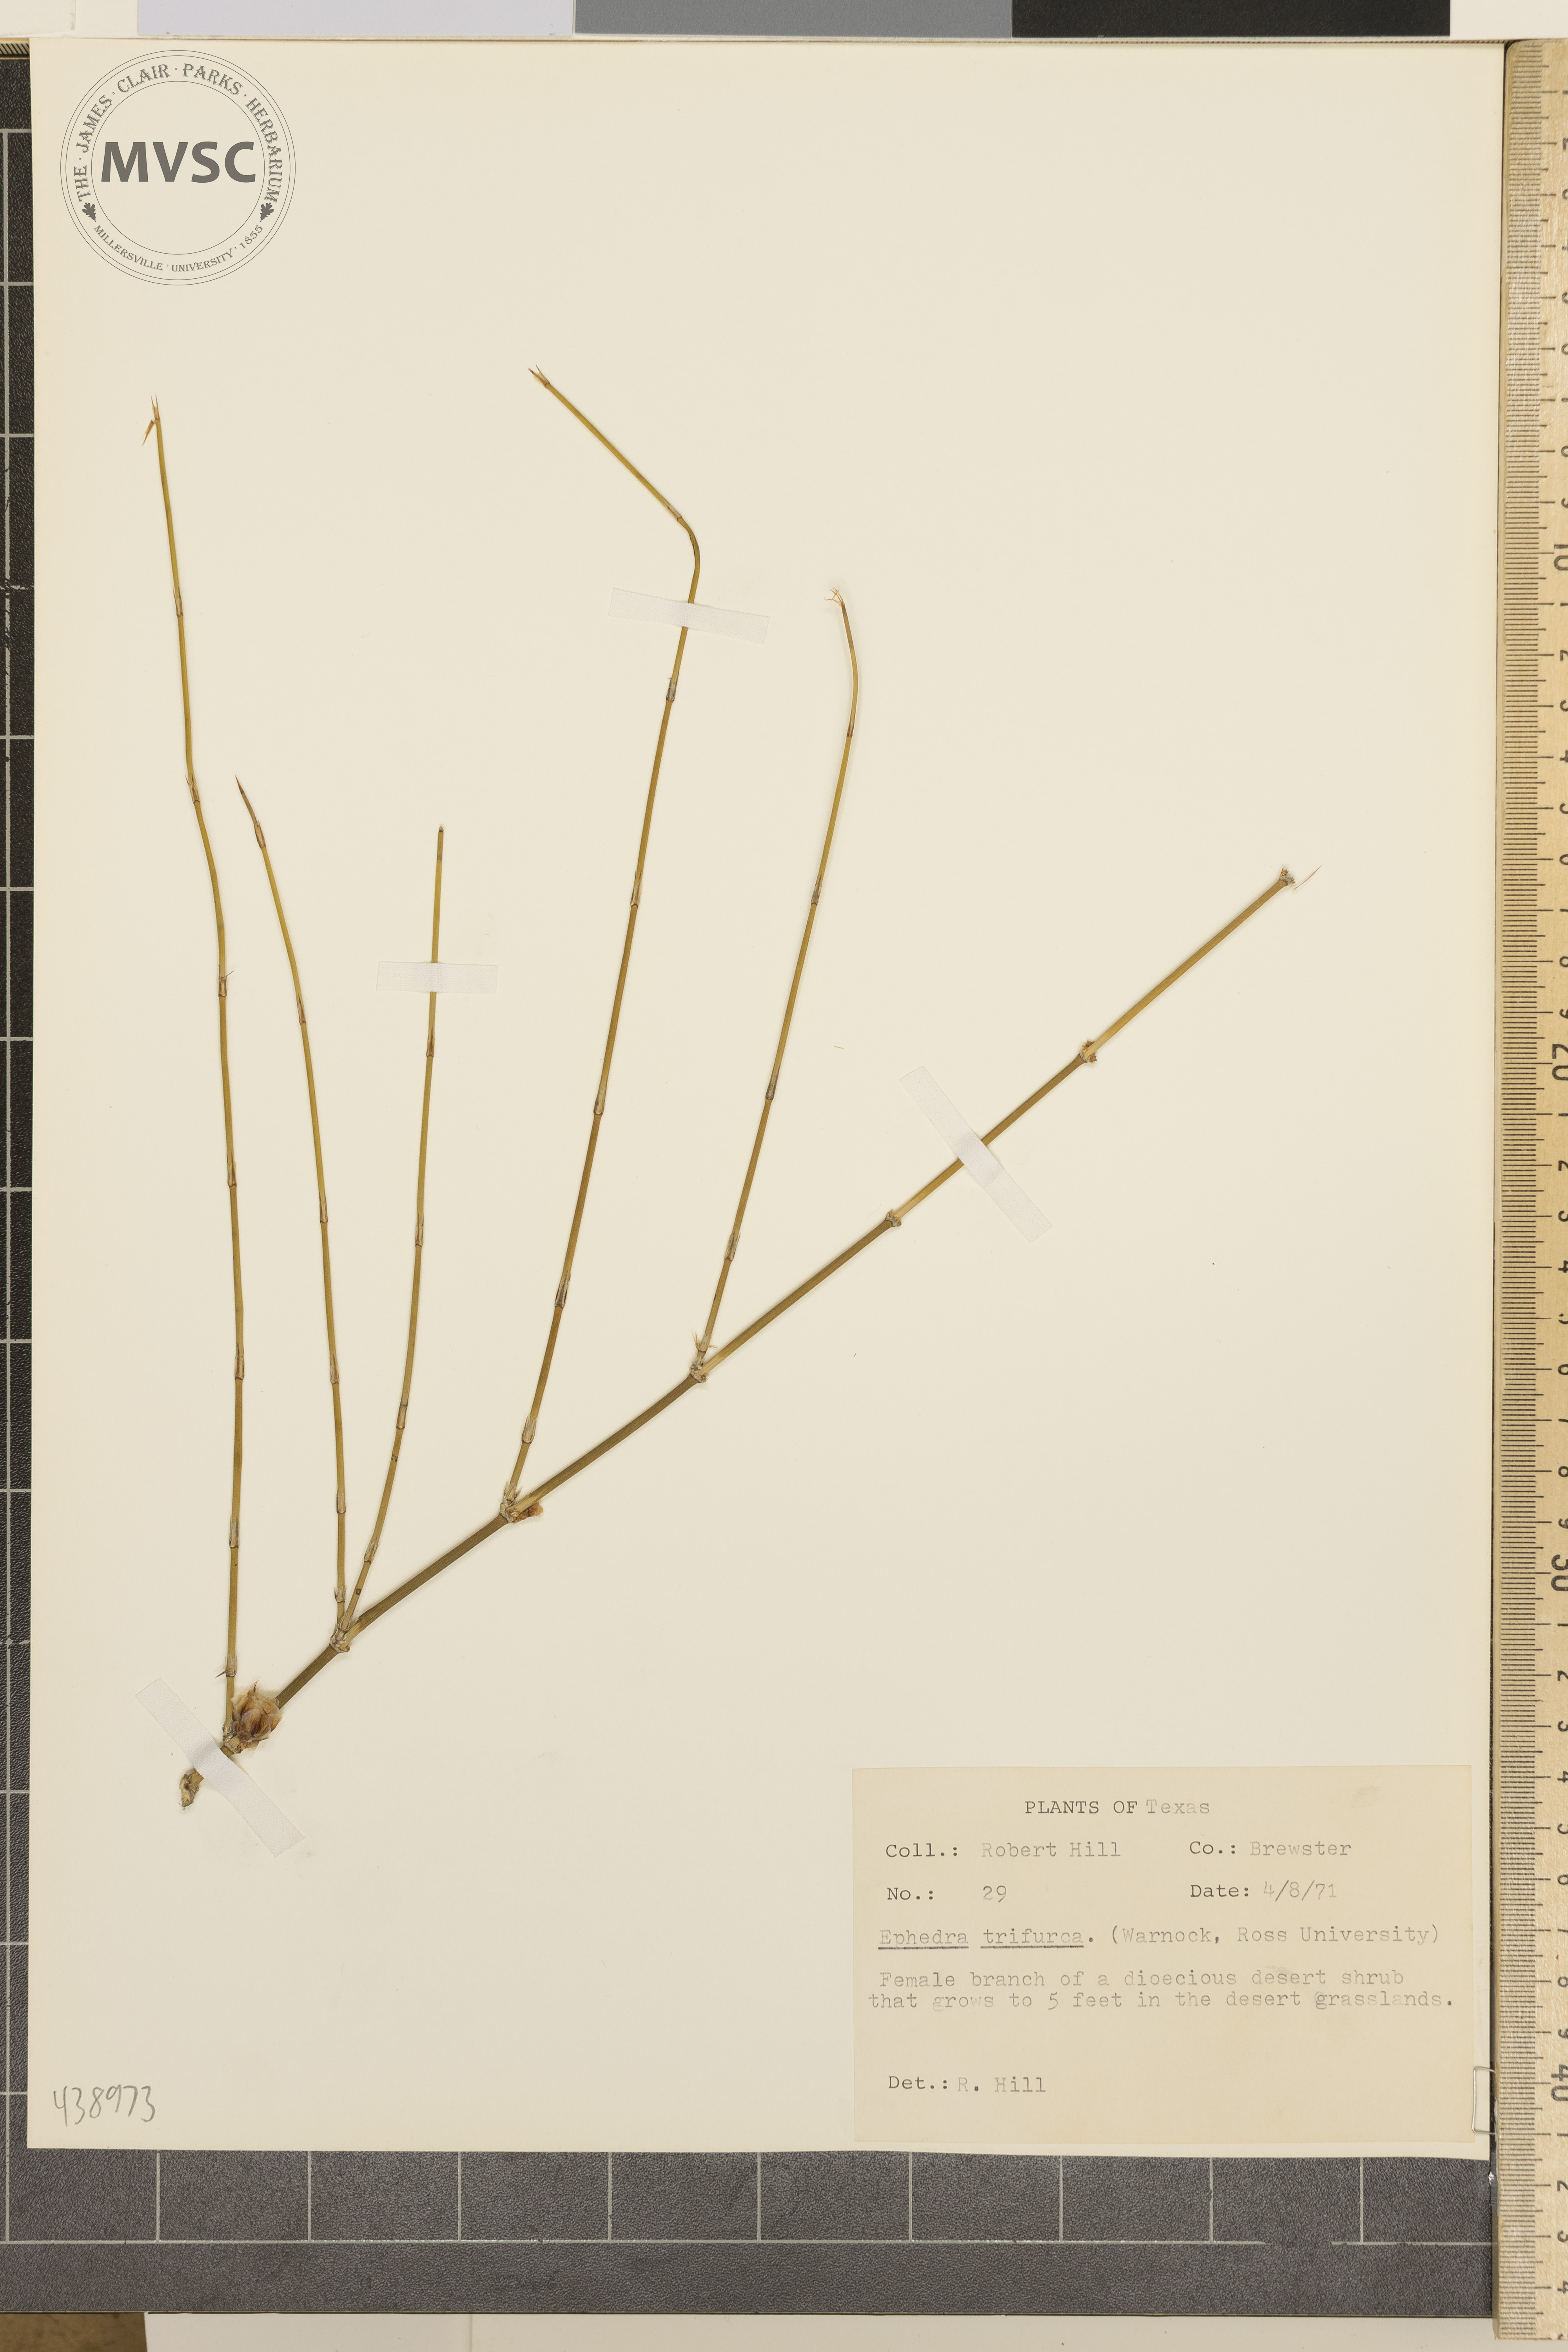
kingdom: Plantae
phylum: Tracheophyta
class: Gnetopsida
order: Ephedrales
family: Ephedraceae
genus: Ephedra
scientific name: Ephedra trifurca
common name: Mexican-tea
